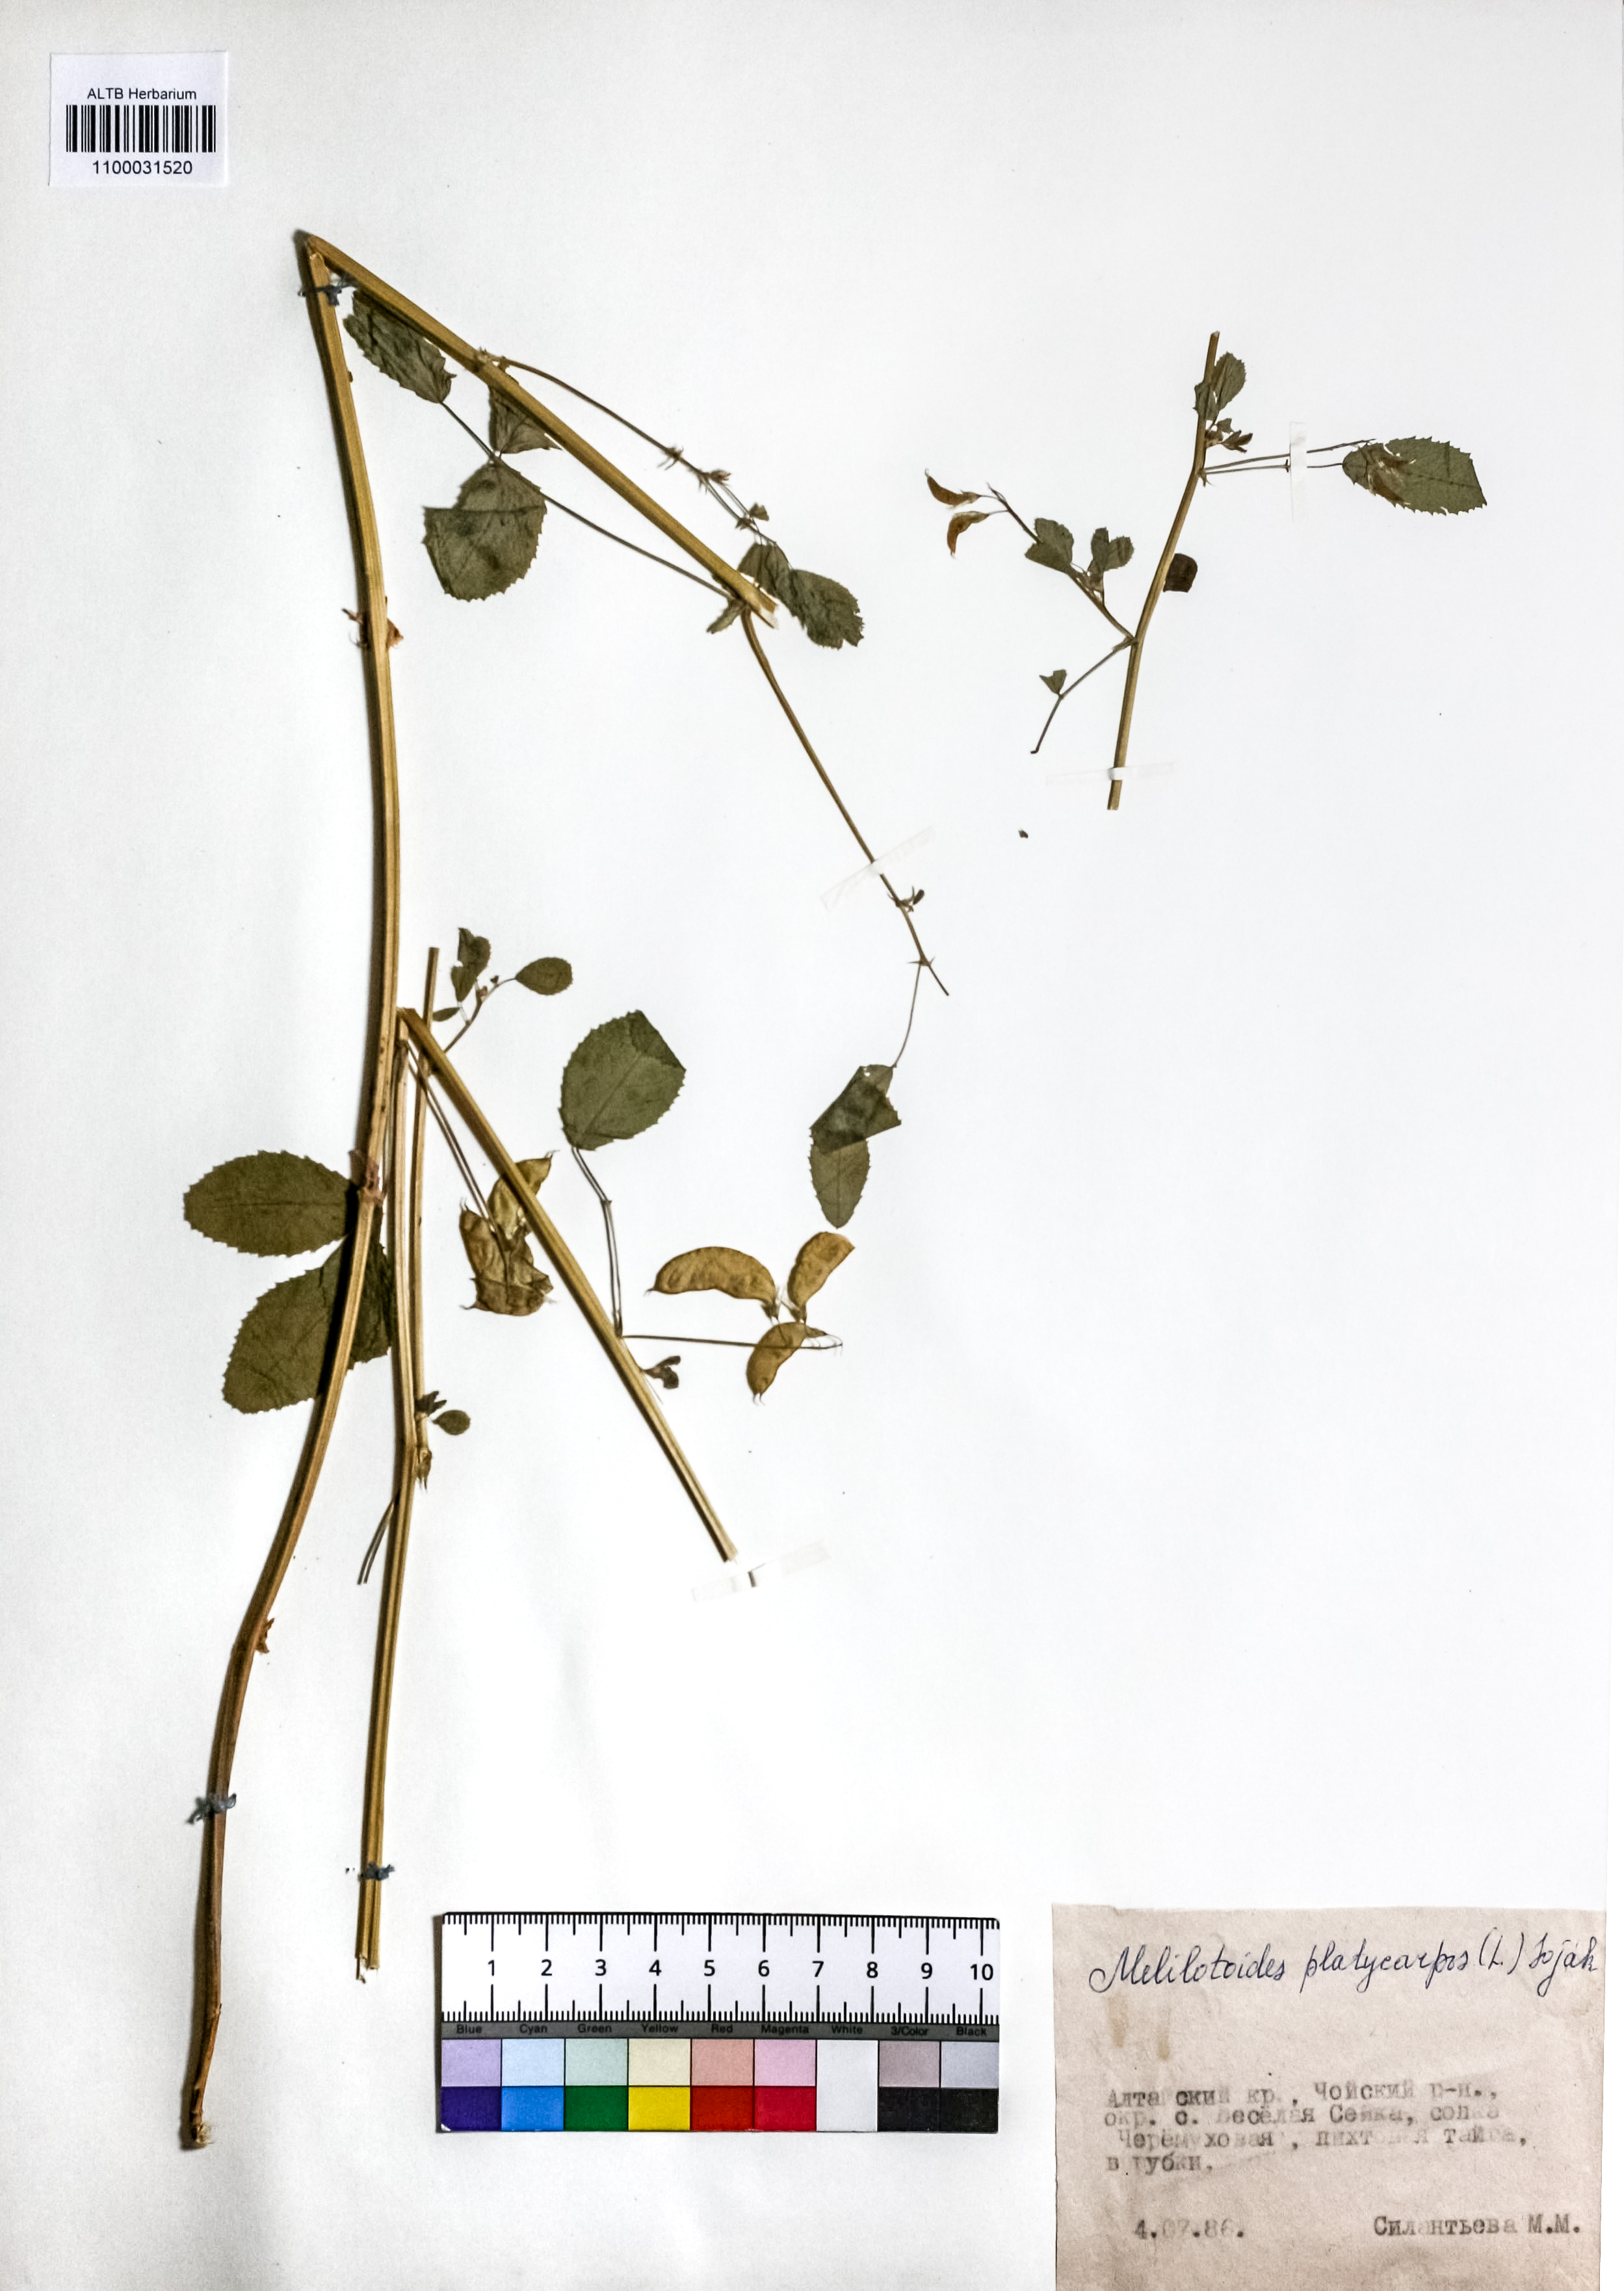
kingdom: Plantae
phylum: Tracheophyta
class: Magnoliopsida
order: Fabales
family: Fabaceae
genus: Medicago
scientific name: Medicago platycarpos
